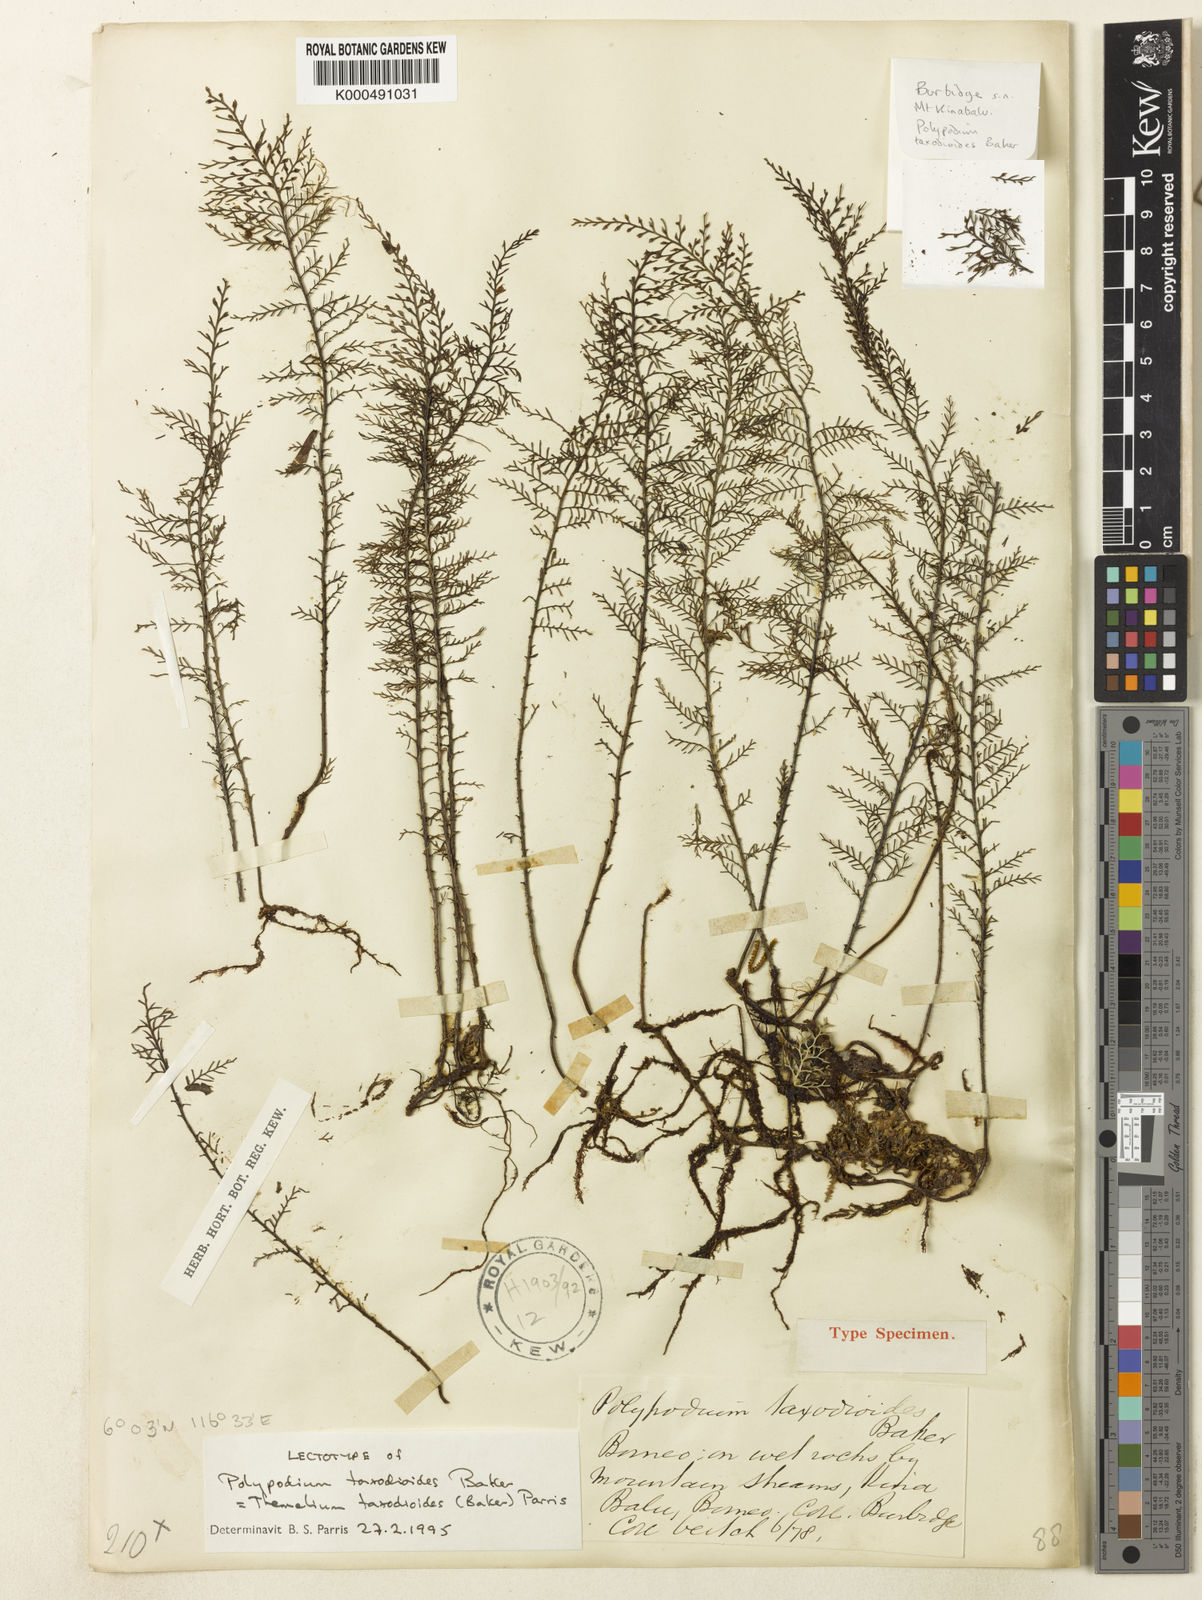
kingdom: Plantae
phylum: Tracheophyta
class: Polypodiopsida
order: Polypodiales
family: Polypodiaceae
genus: Oreogrammitis
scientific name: Oreogrammitis taxodioides
